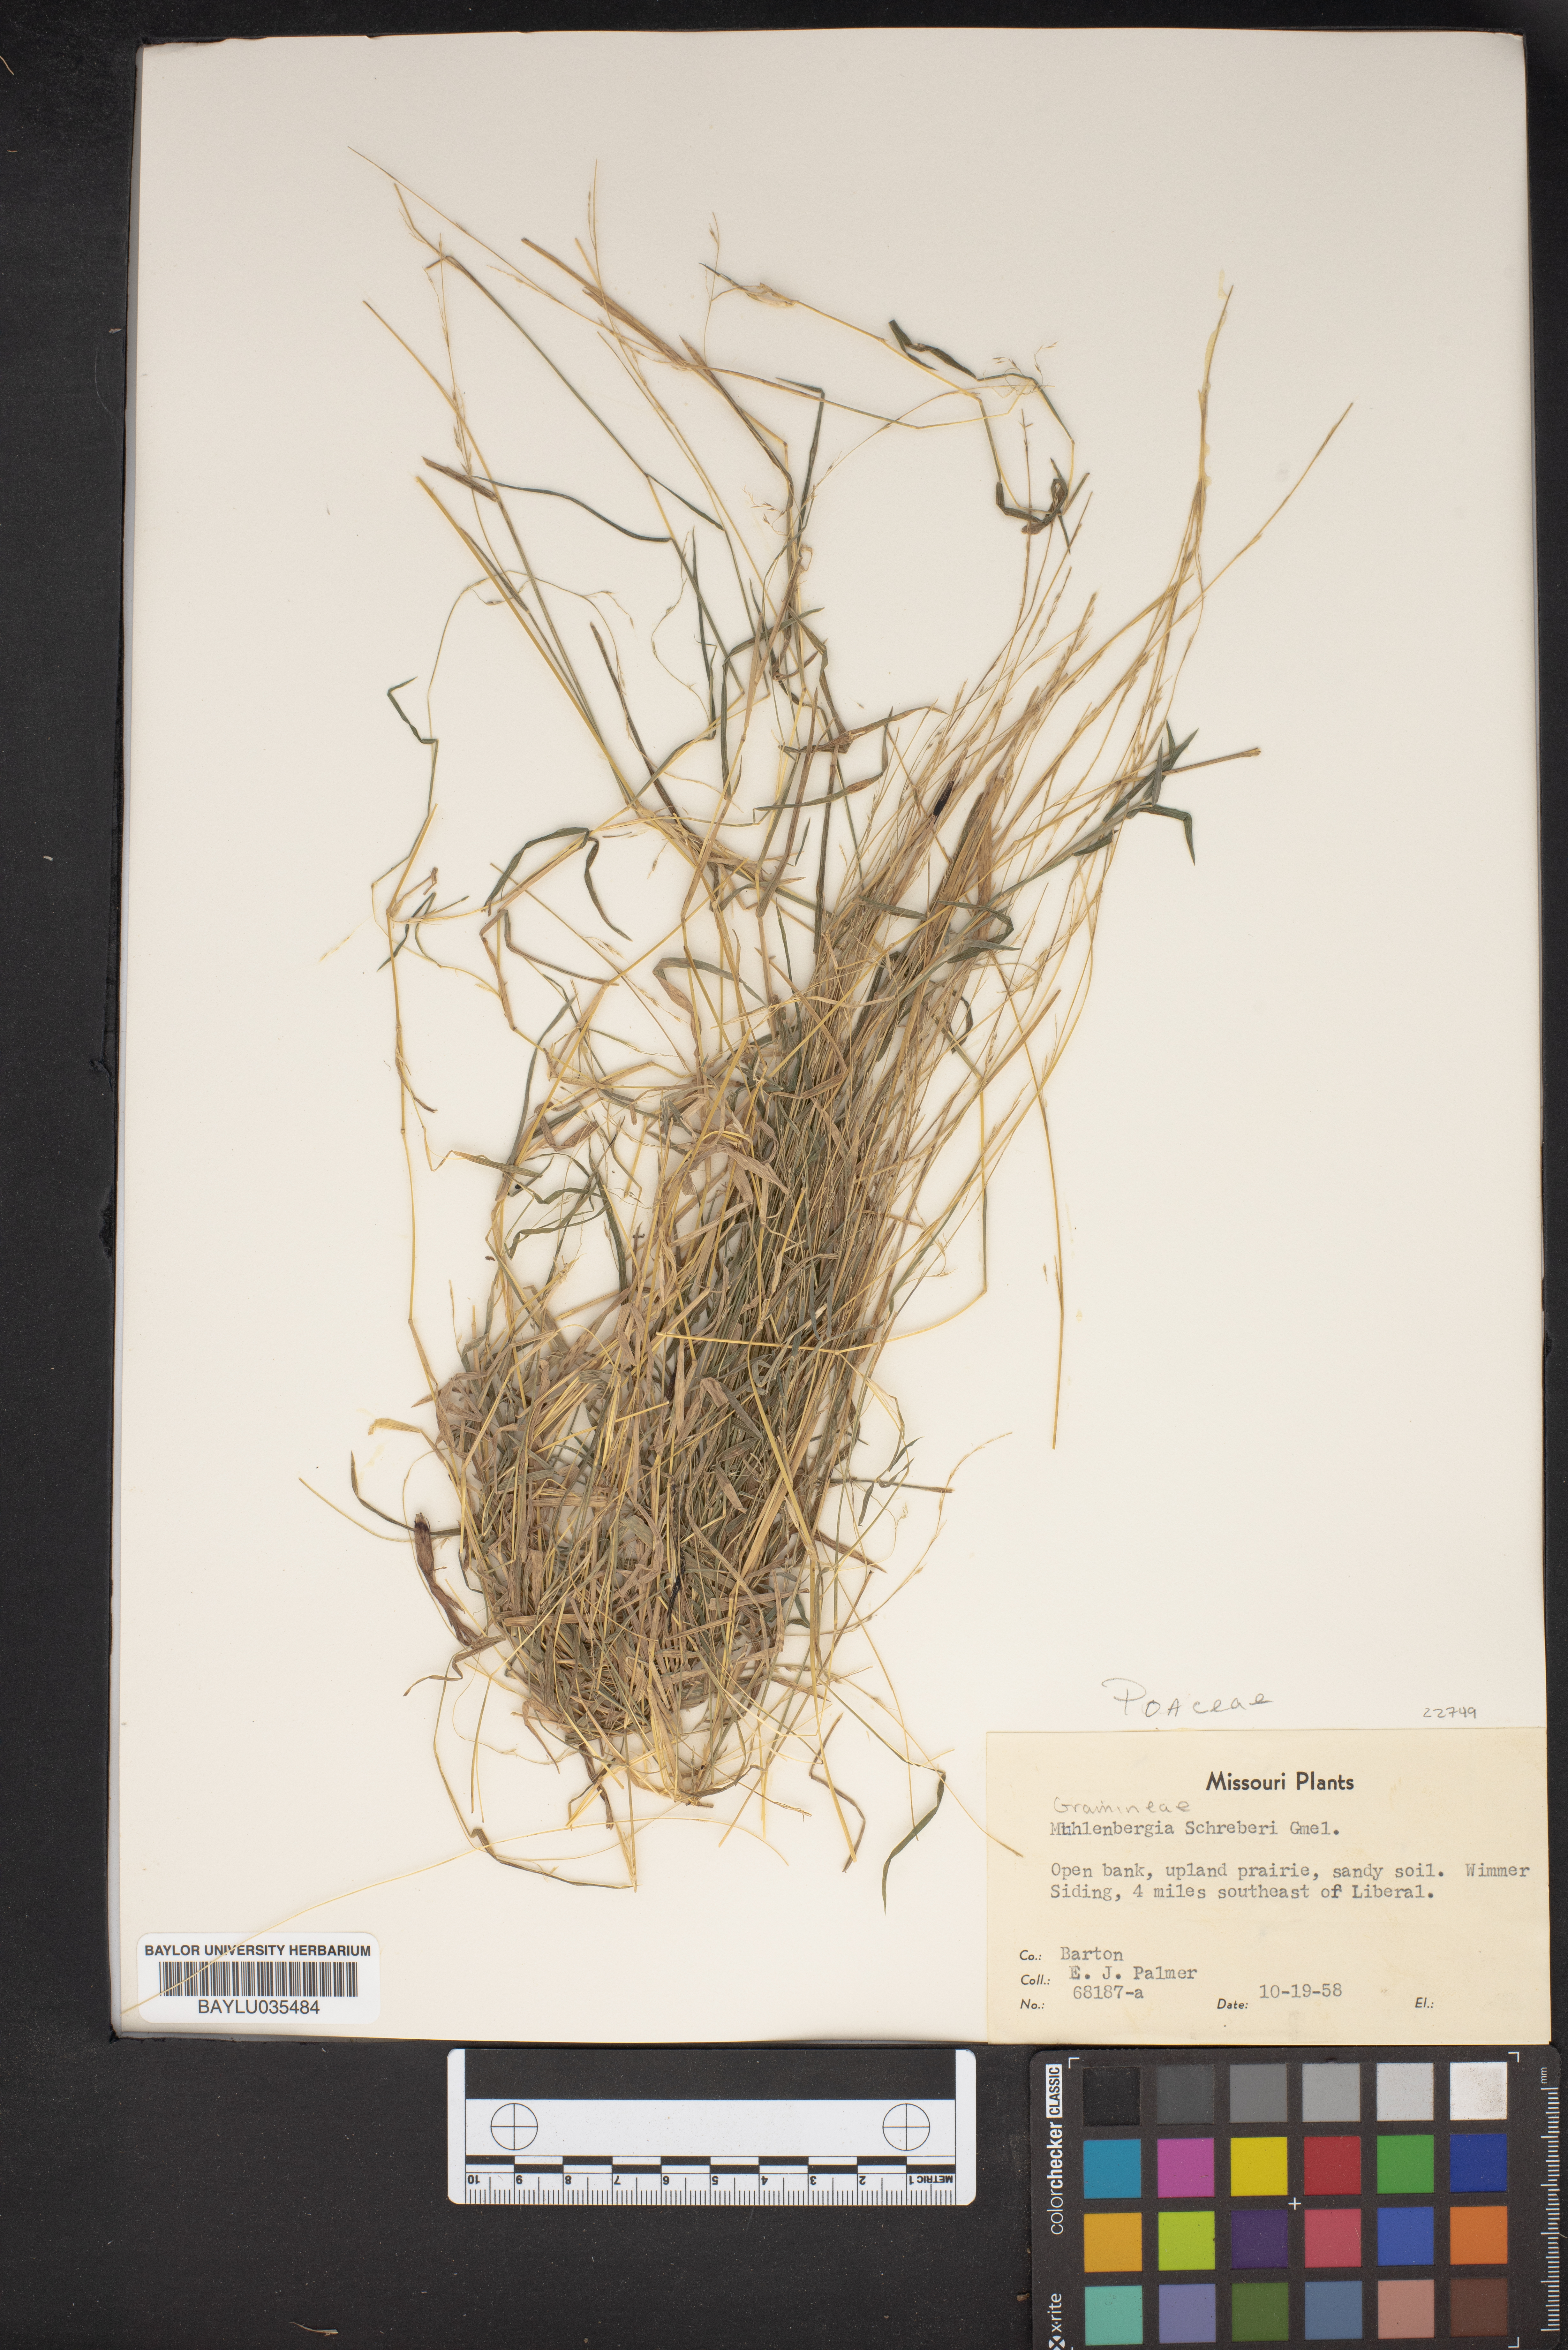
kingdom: Plantae
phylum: Tracheophyta
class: Liliopsida
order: Poales
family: Poaceae
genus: Muhlenbergia
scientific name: Muhlenbergia schreberi
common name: Nimblewill
